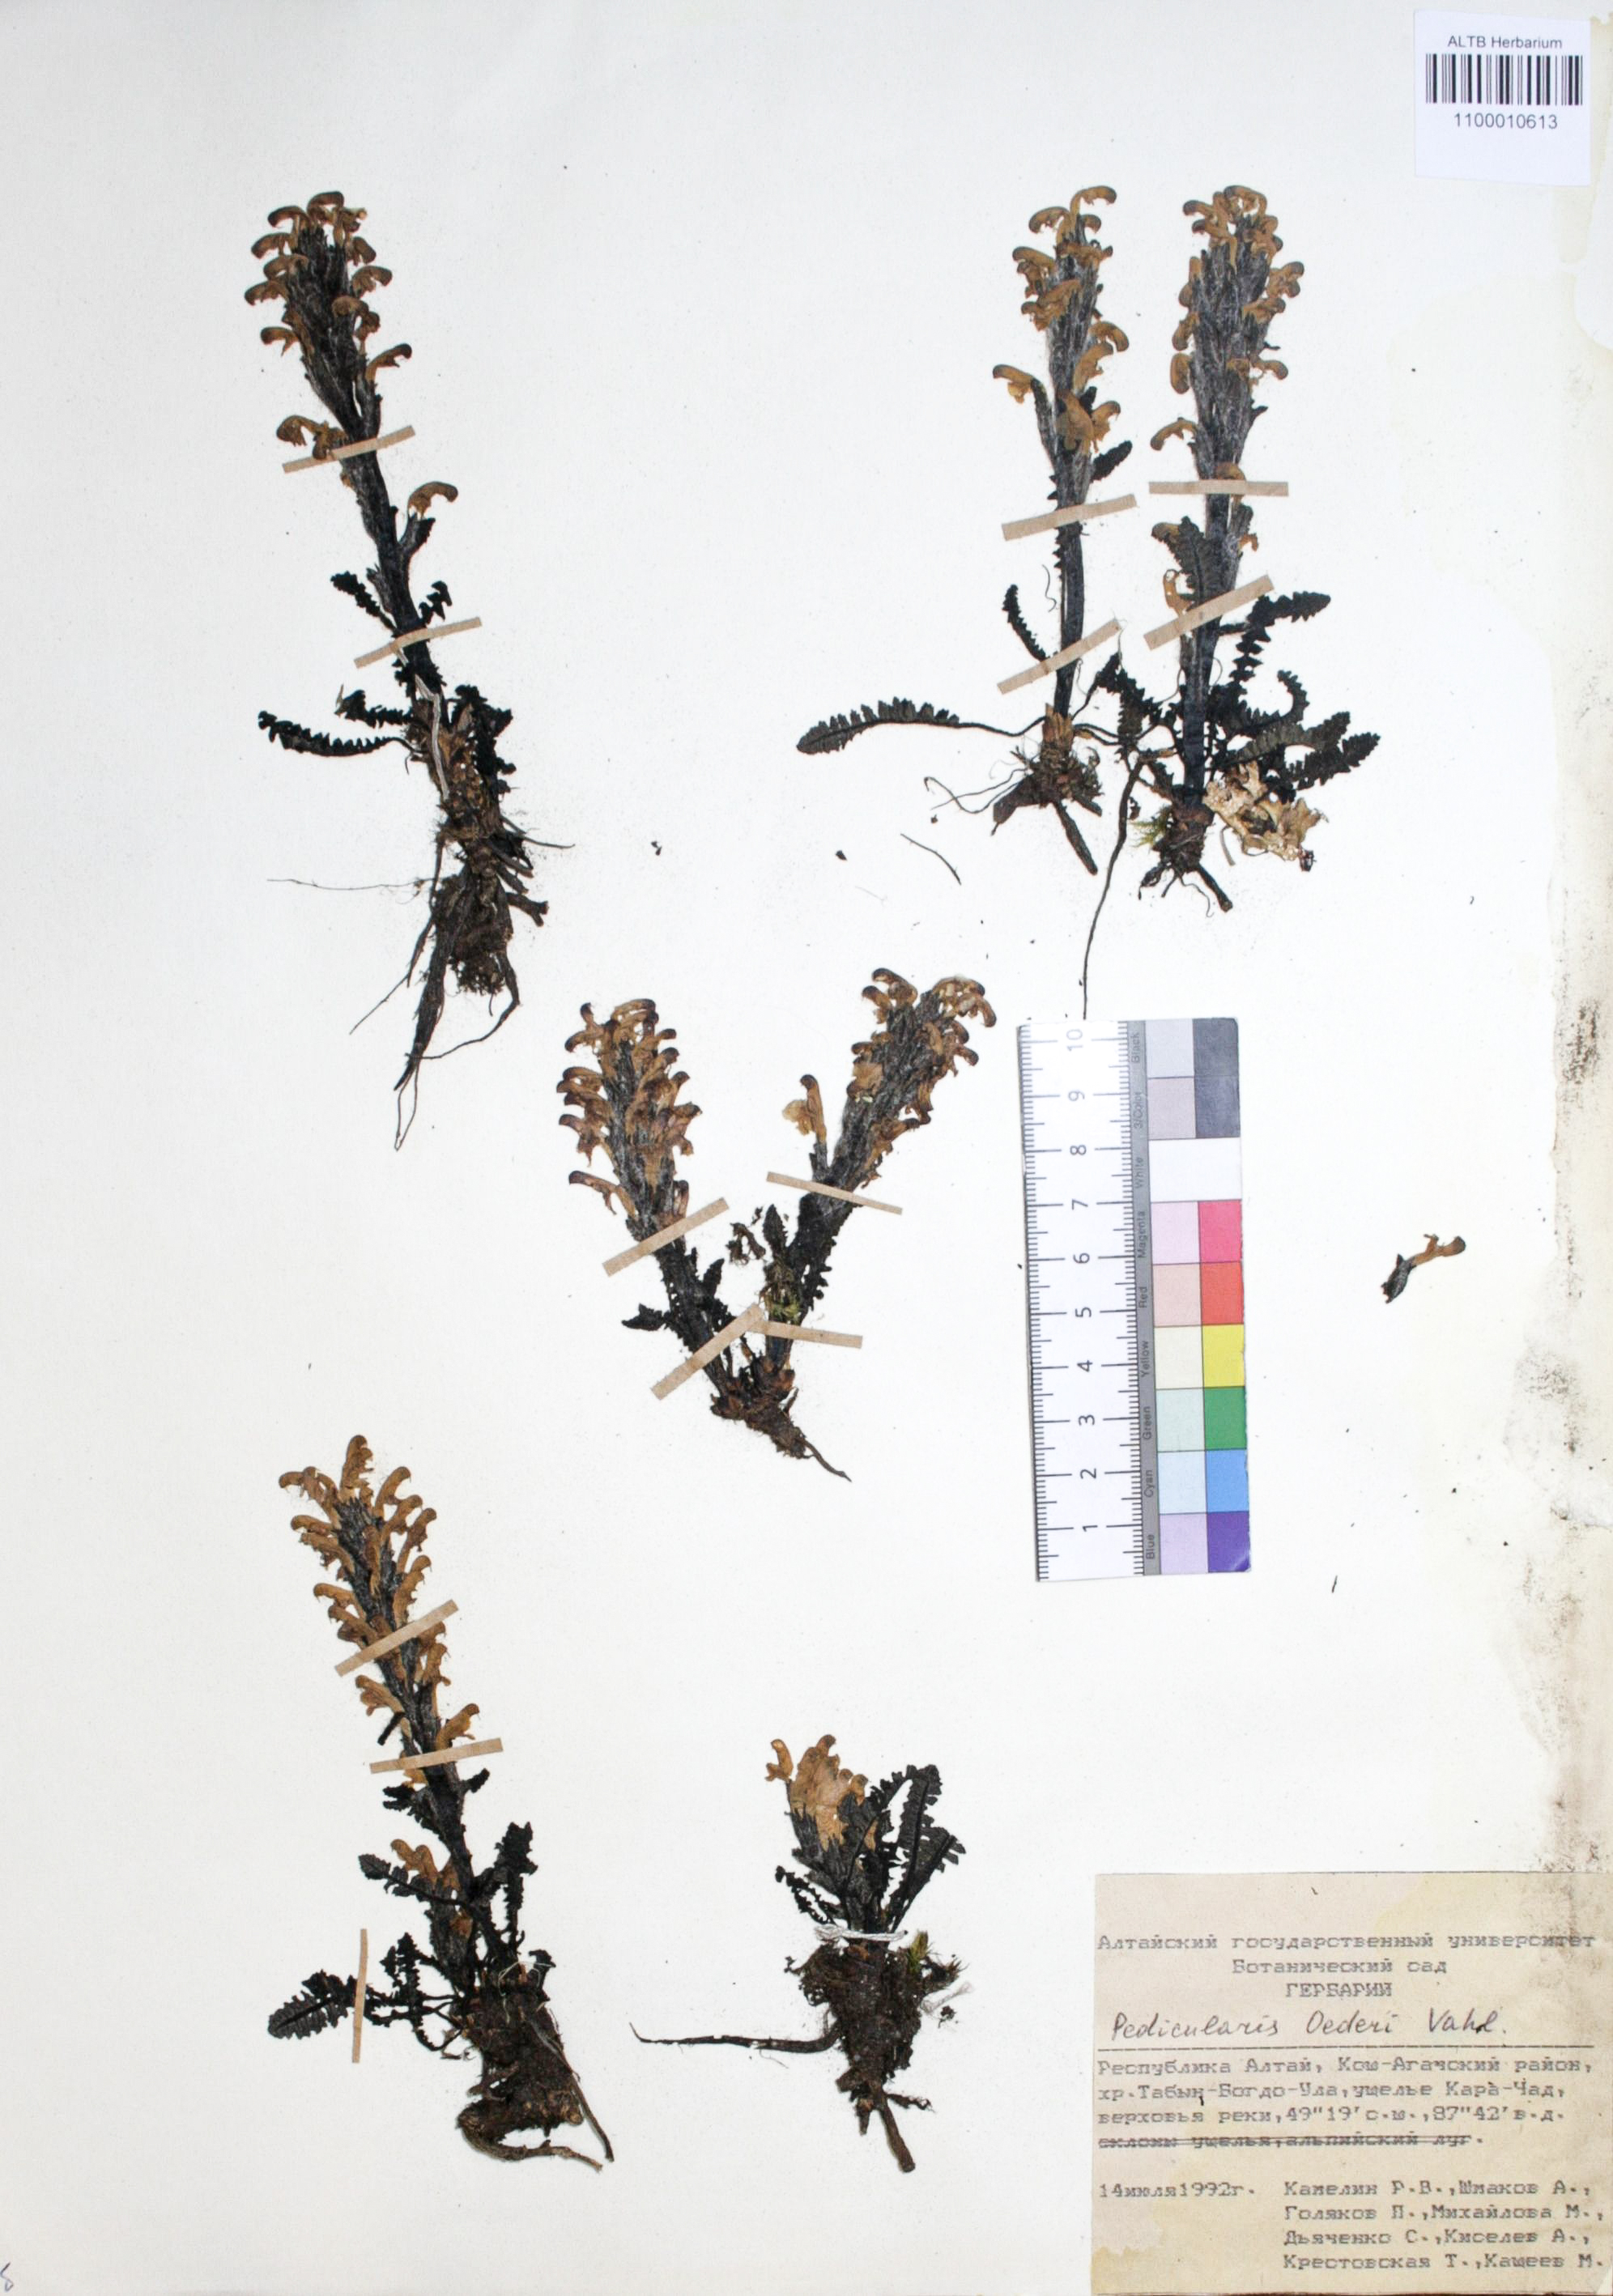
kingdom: Plantae
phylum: Tracheophyta
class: Magnoliopsida
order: Caryophyllales
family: Caryophyllaceae
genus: Silene
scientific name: Silene graminifolia
